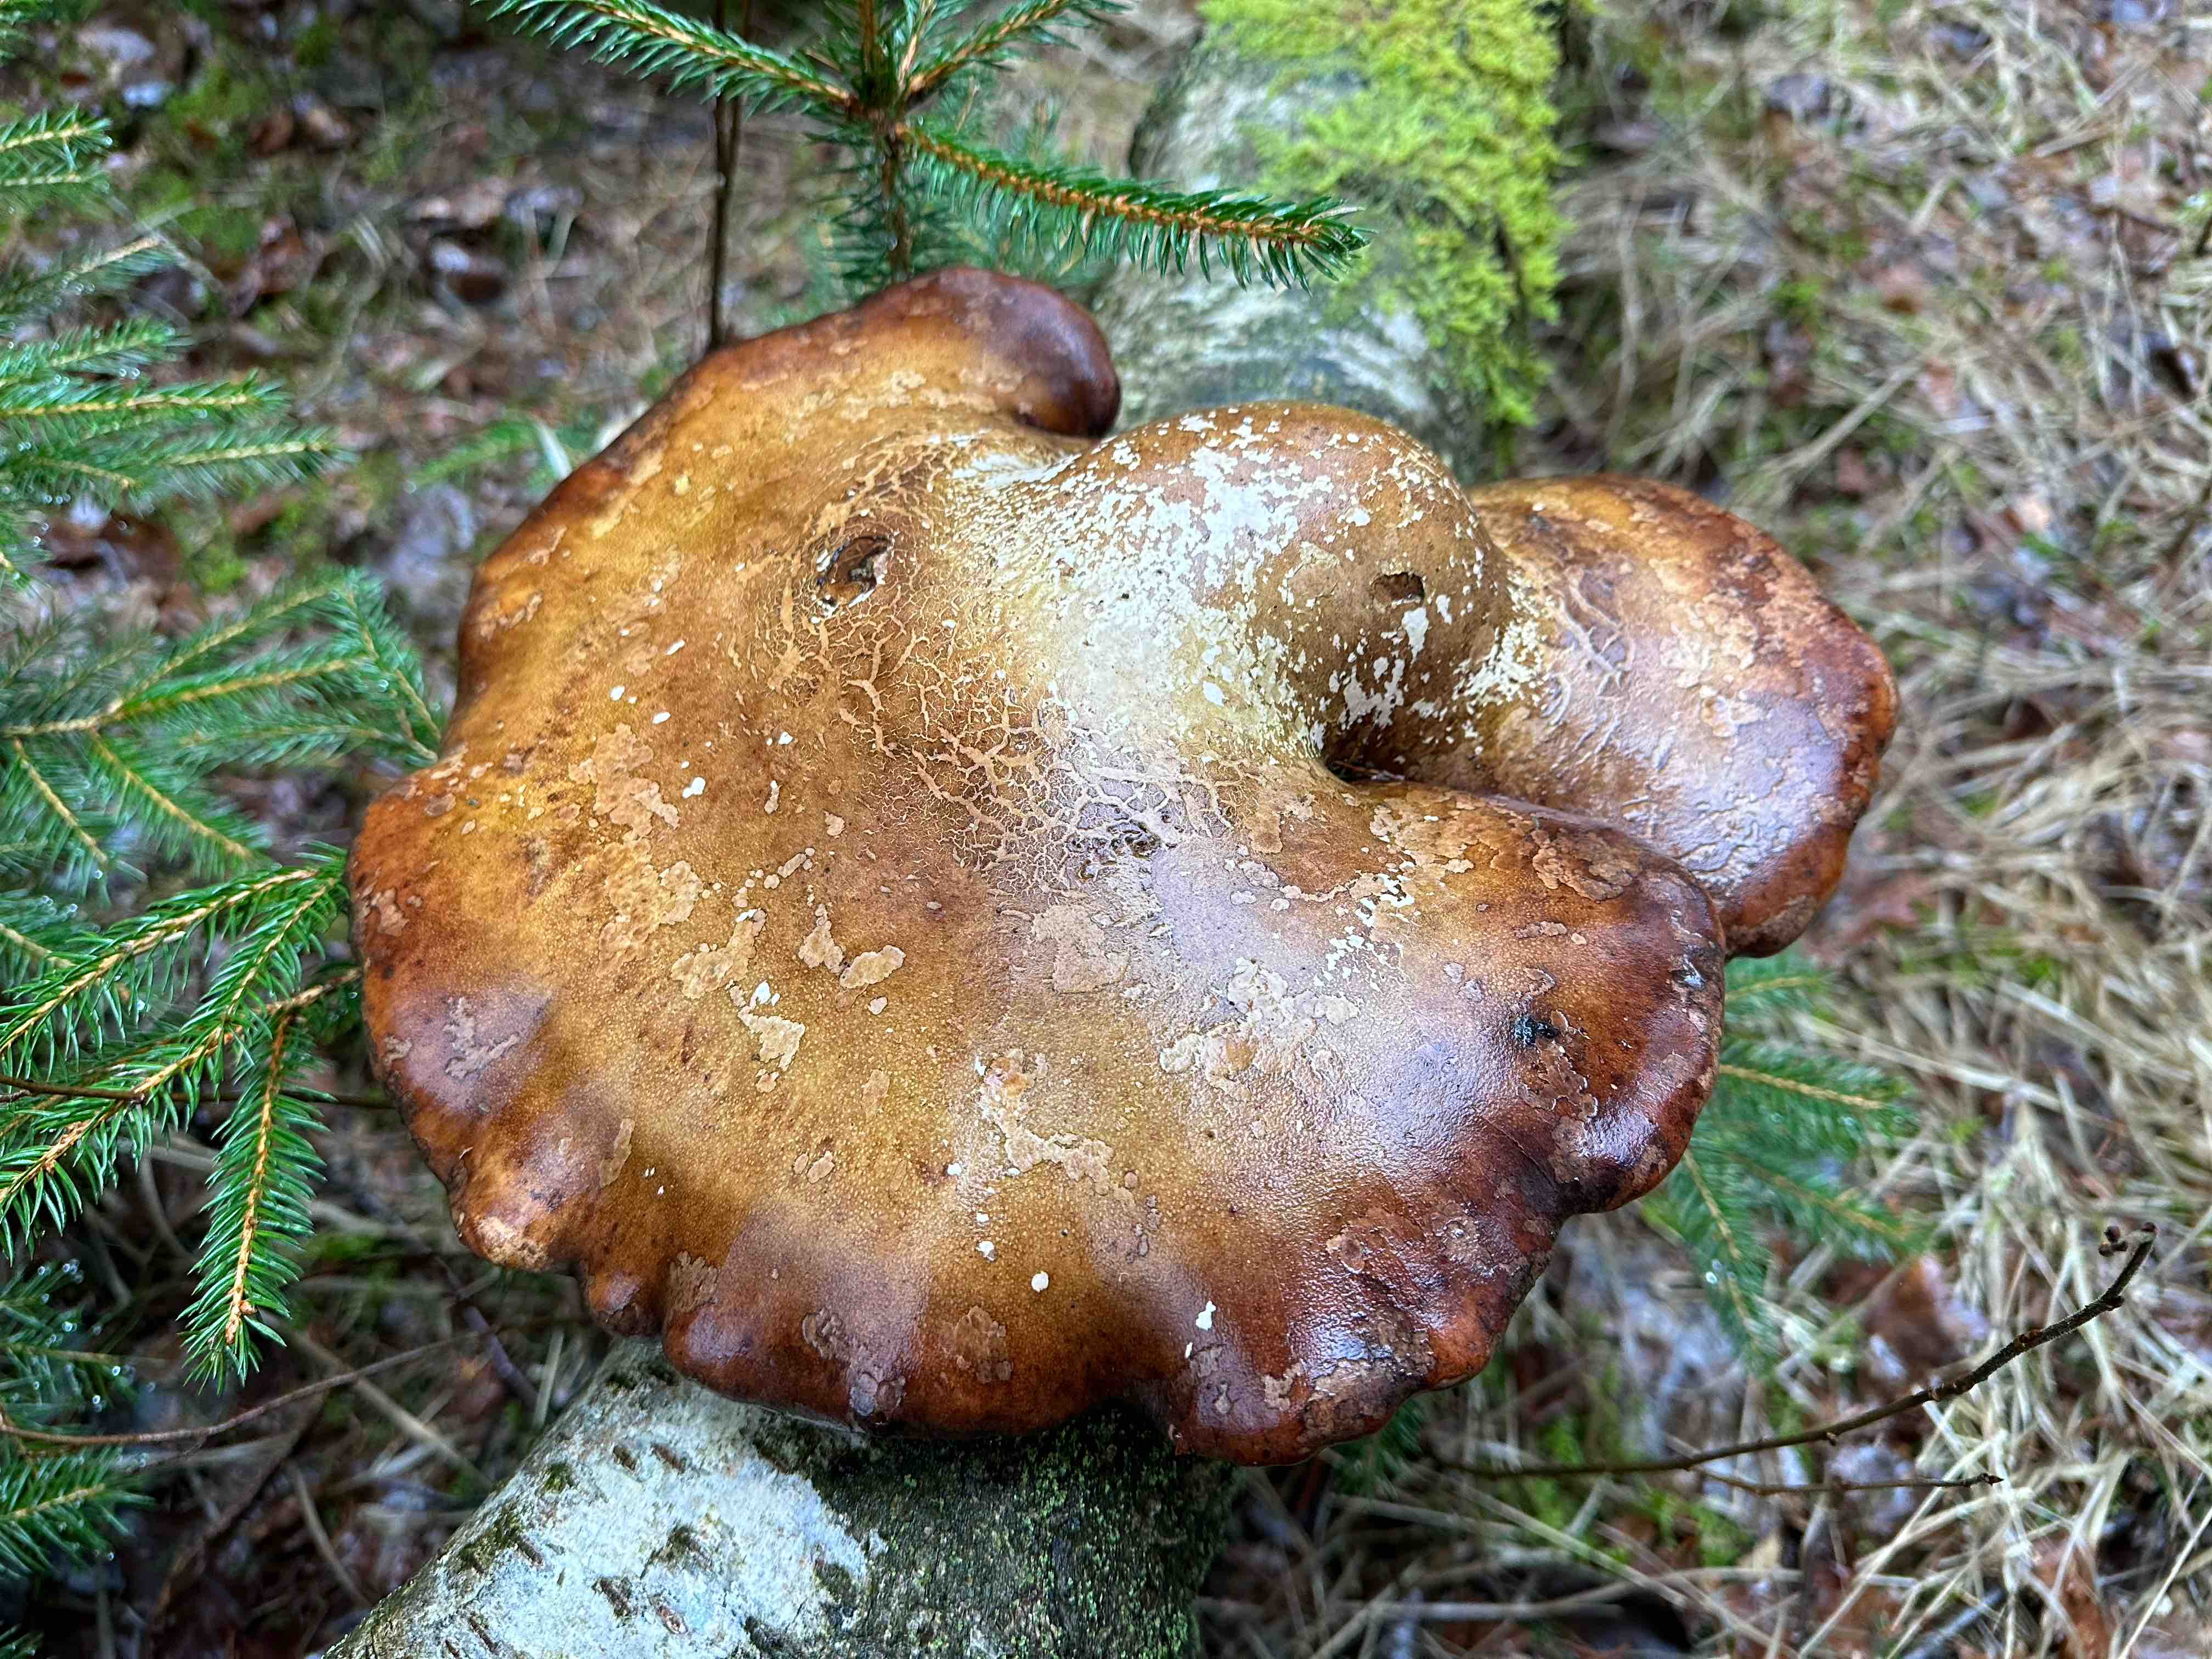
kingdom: Fungi
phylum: Basidiomycota
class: Agaricomycetes
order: Polyporales
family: Fomitopsidaceae
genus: Fomitopsis
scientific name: Fomitopsis betulina
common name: birkeporesvamp
